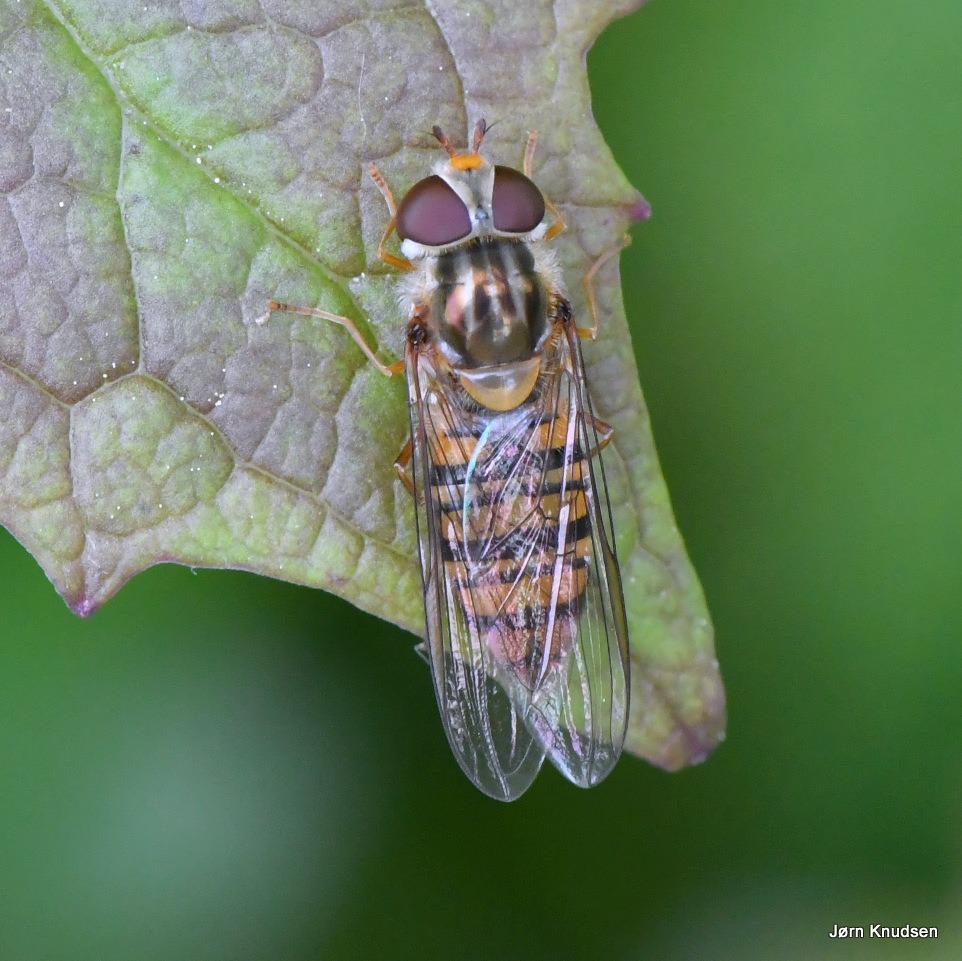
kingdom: Animalia
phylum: Arthropoda
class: Insecta
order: Diptera
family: Syrphidae
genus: Episyrphus
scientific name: Episyrphus balteatus
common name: Dobbeltbåndet svirreflue
